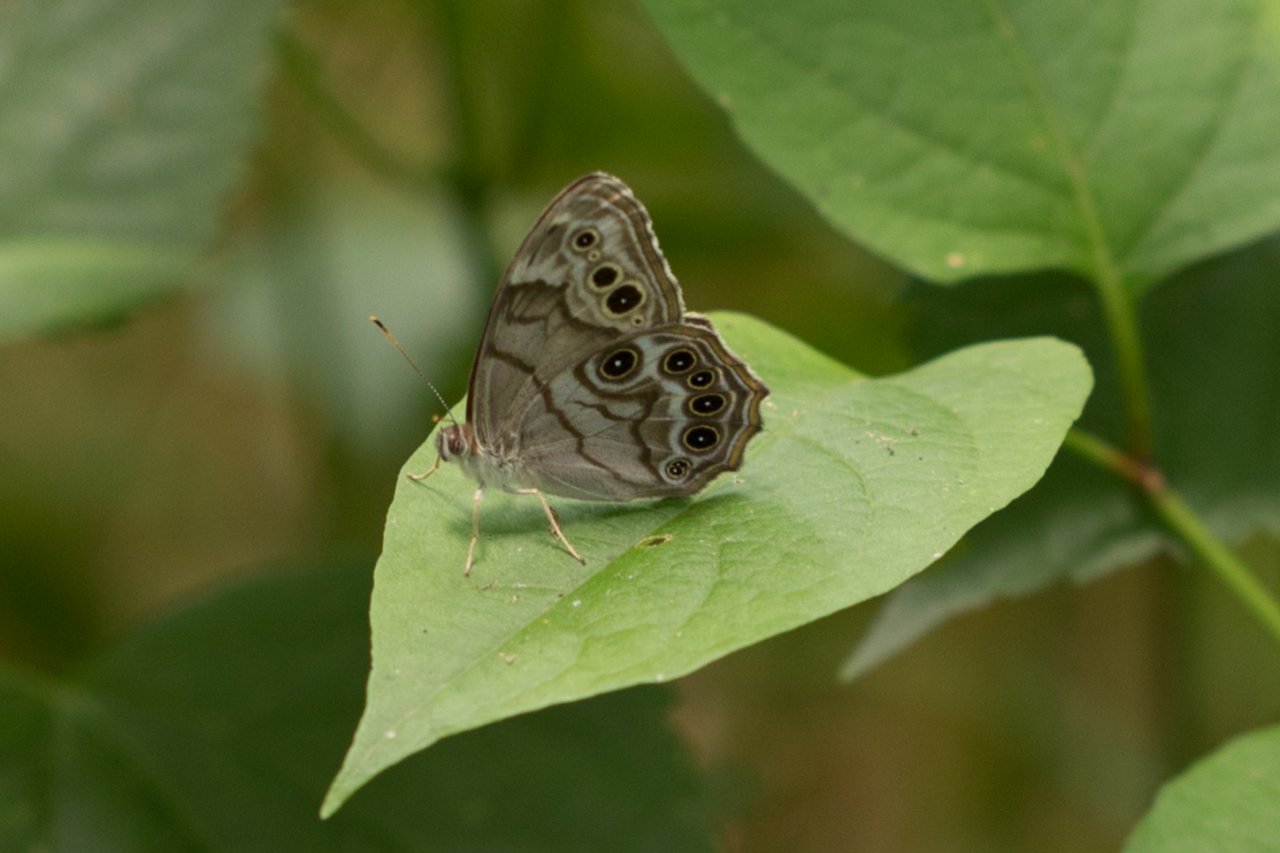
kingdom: Animalia
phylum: Arthropoda
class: Insecta
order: Lepidoptera
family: Nymphalidae
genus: Lethe
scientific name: Lethe anthedon
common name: Northern Pearly-Eye
